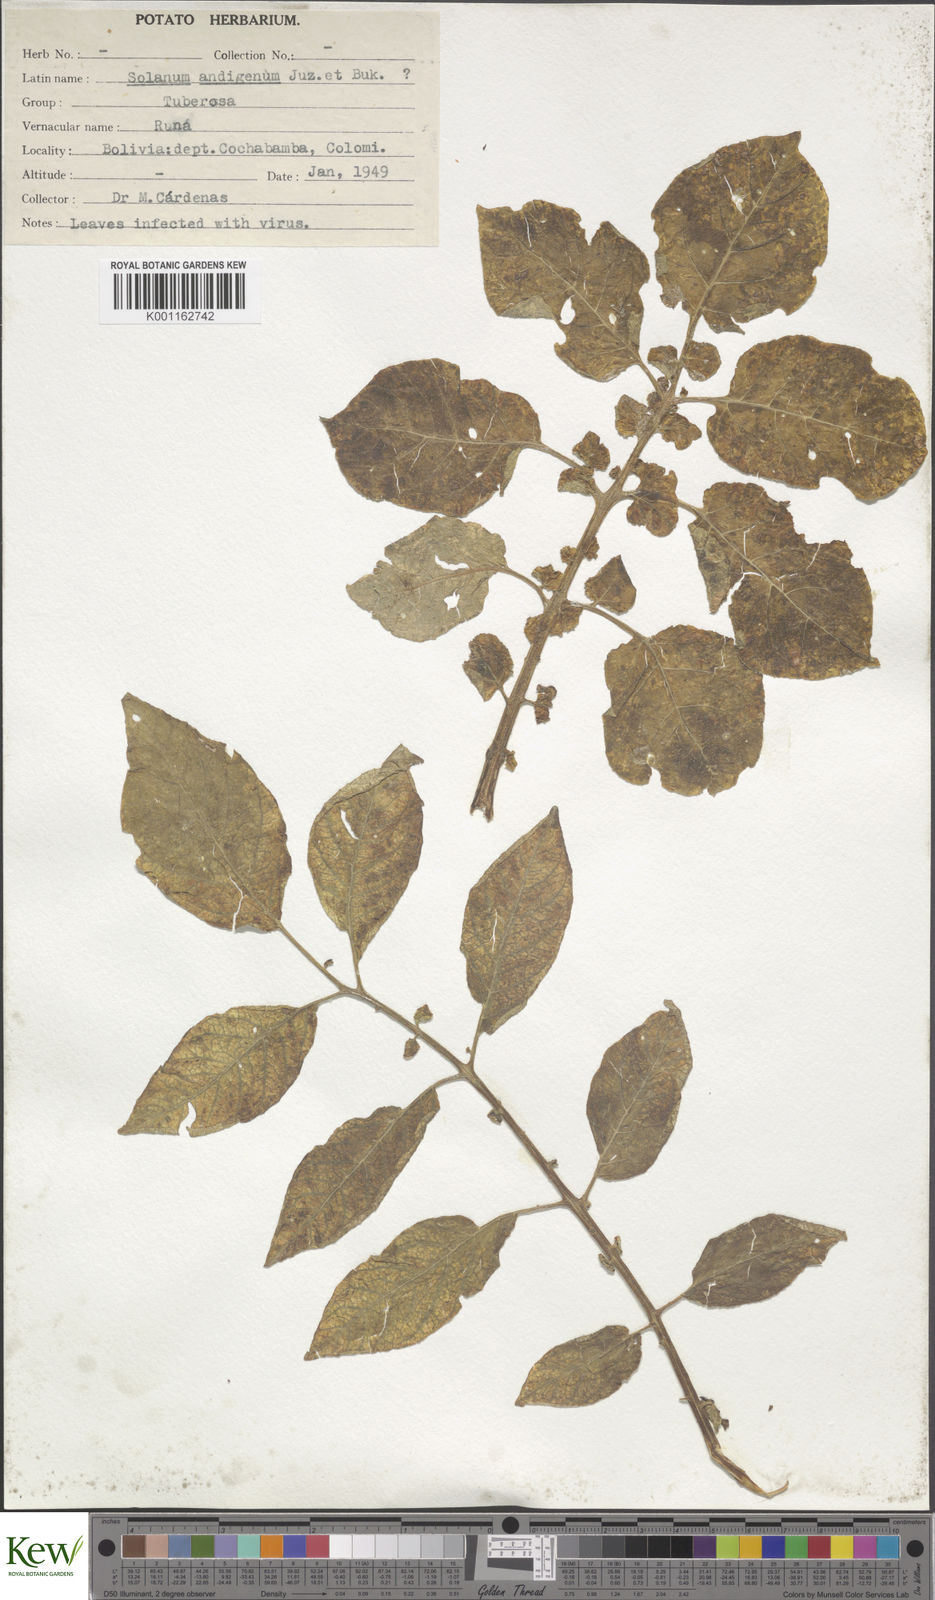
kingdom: Plantae
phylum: Tracheophyta
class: Magnoliopsida
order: Solanales
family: Solanaceae
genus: Solanum
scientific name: Solanum tuberosum
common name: Potato
